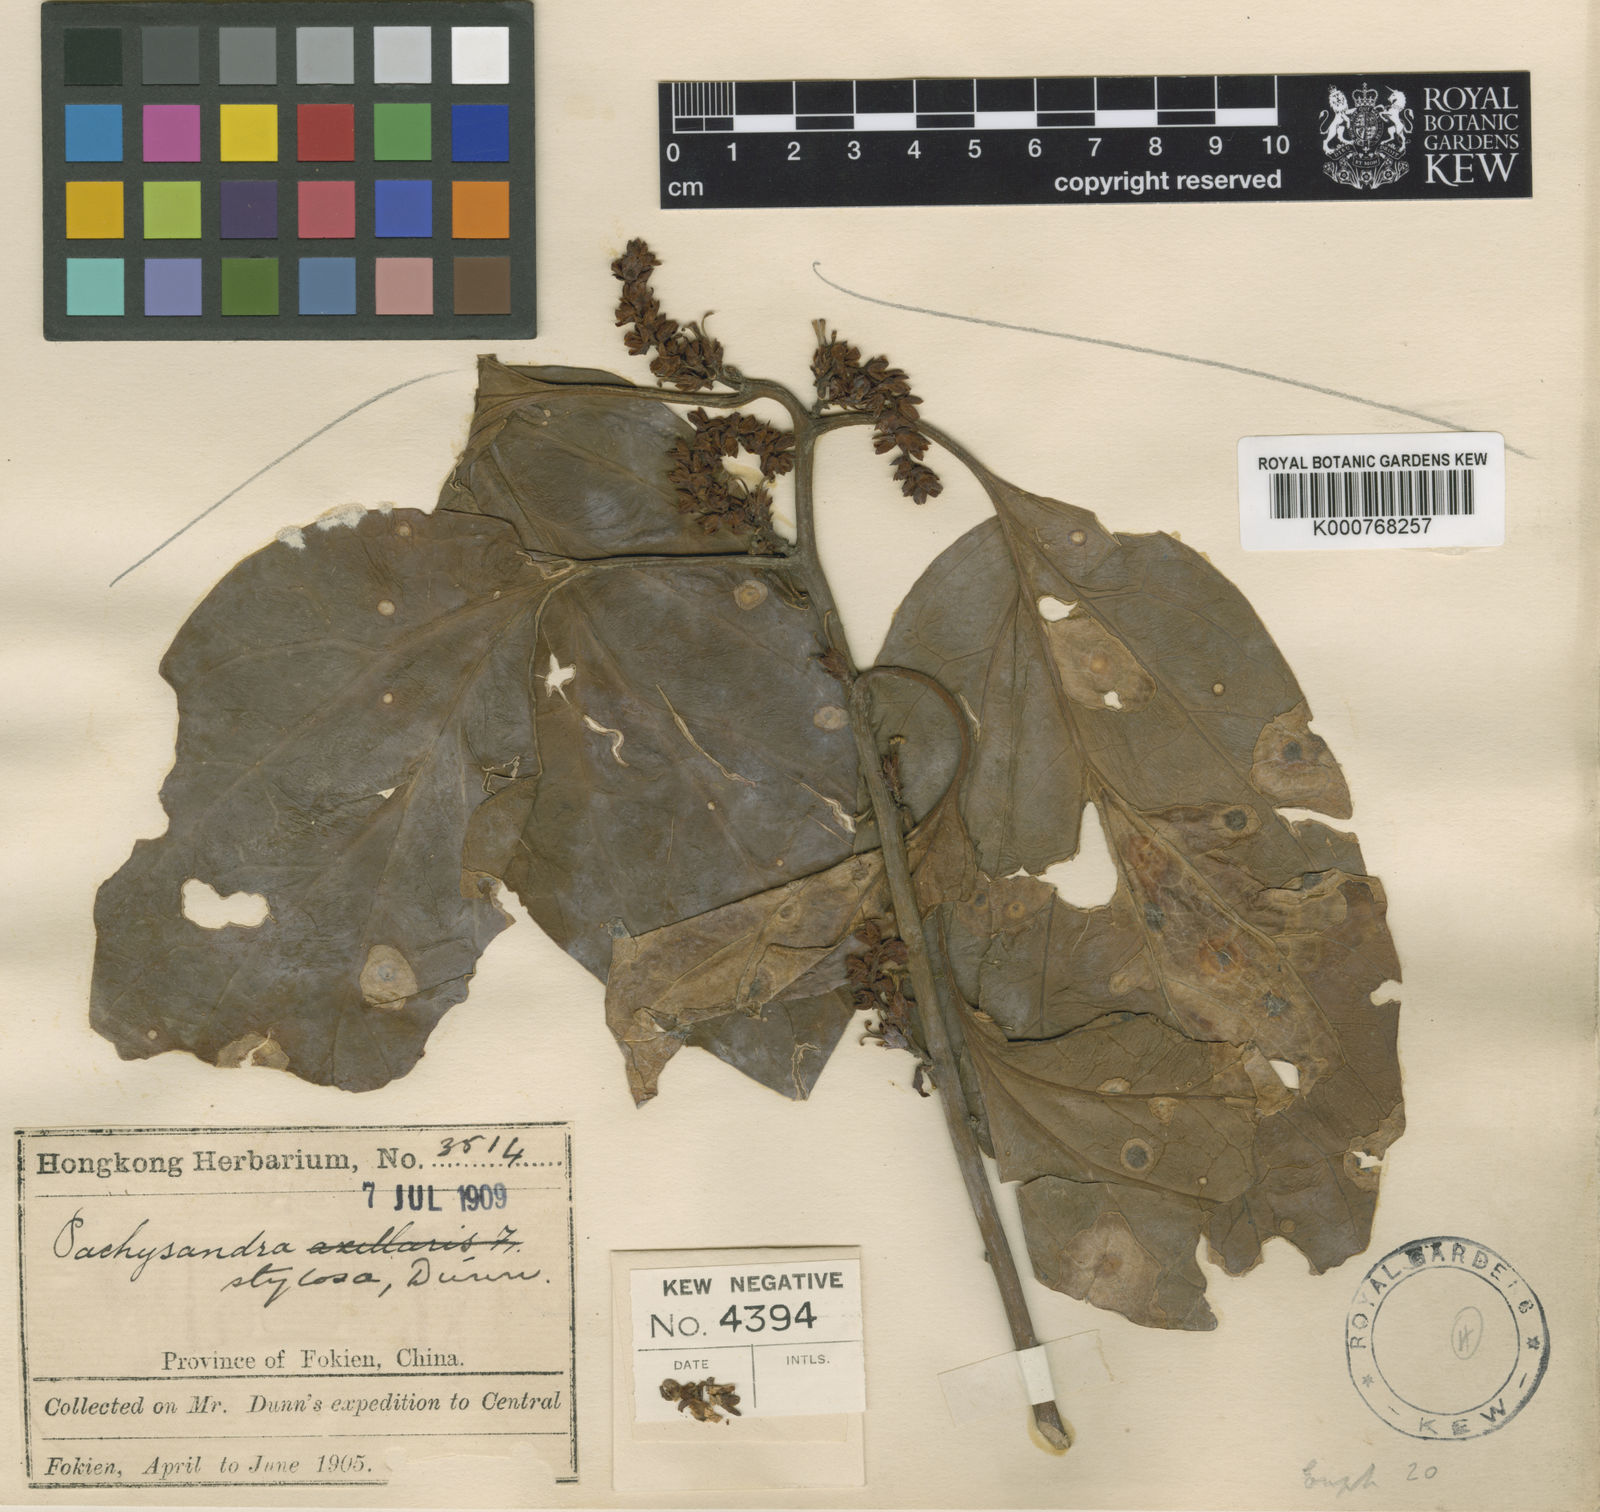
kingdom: Plantae
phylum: Tracheophyta
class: Magnoliopsida
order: Buxales
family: Buxaceae
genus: Pachysandra
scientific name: Pachysandra axillaris
